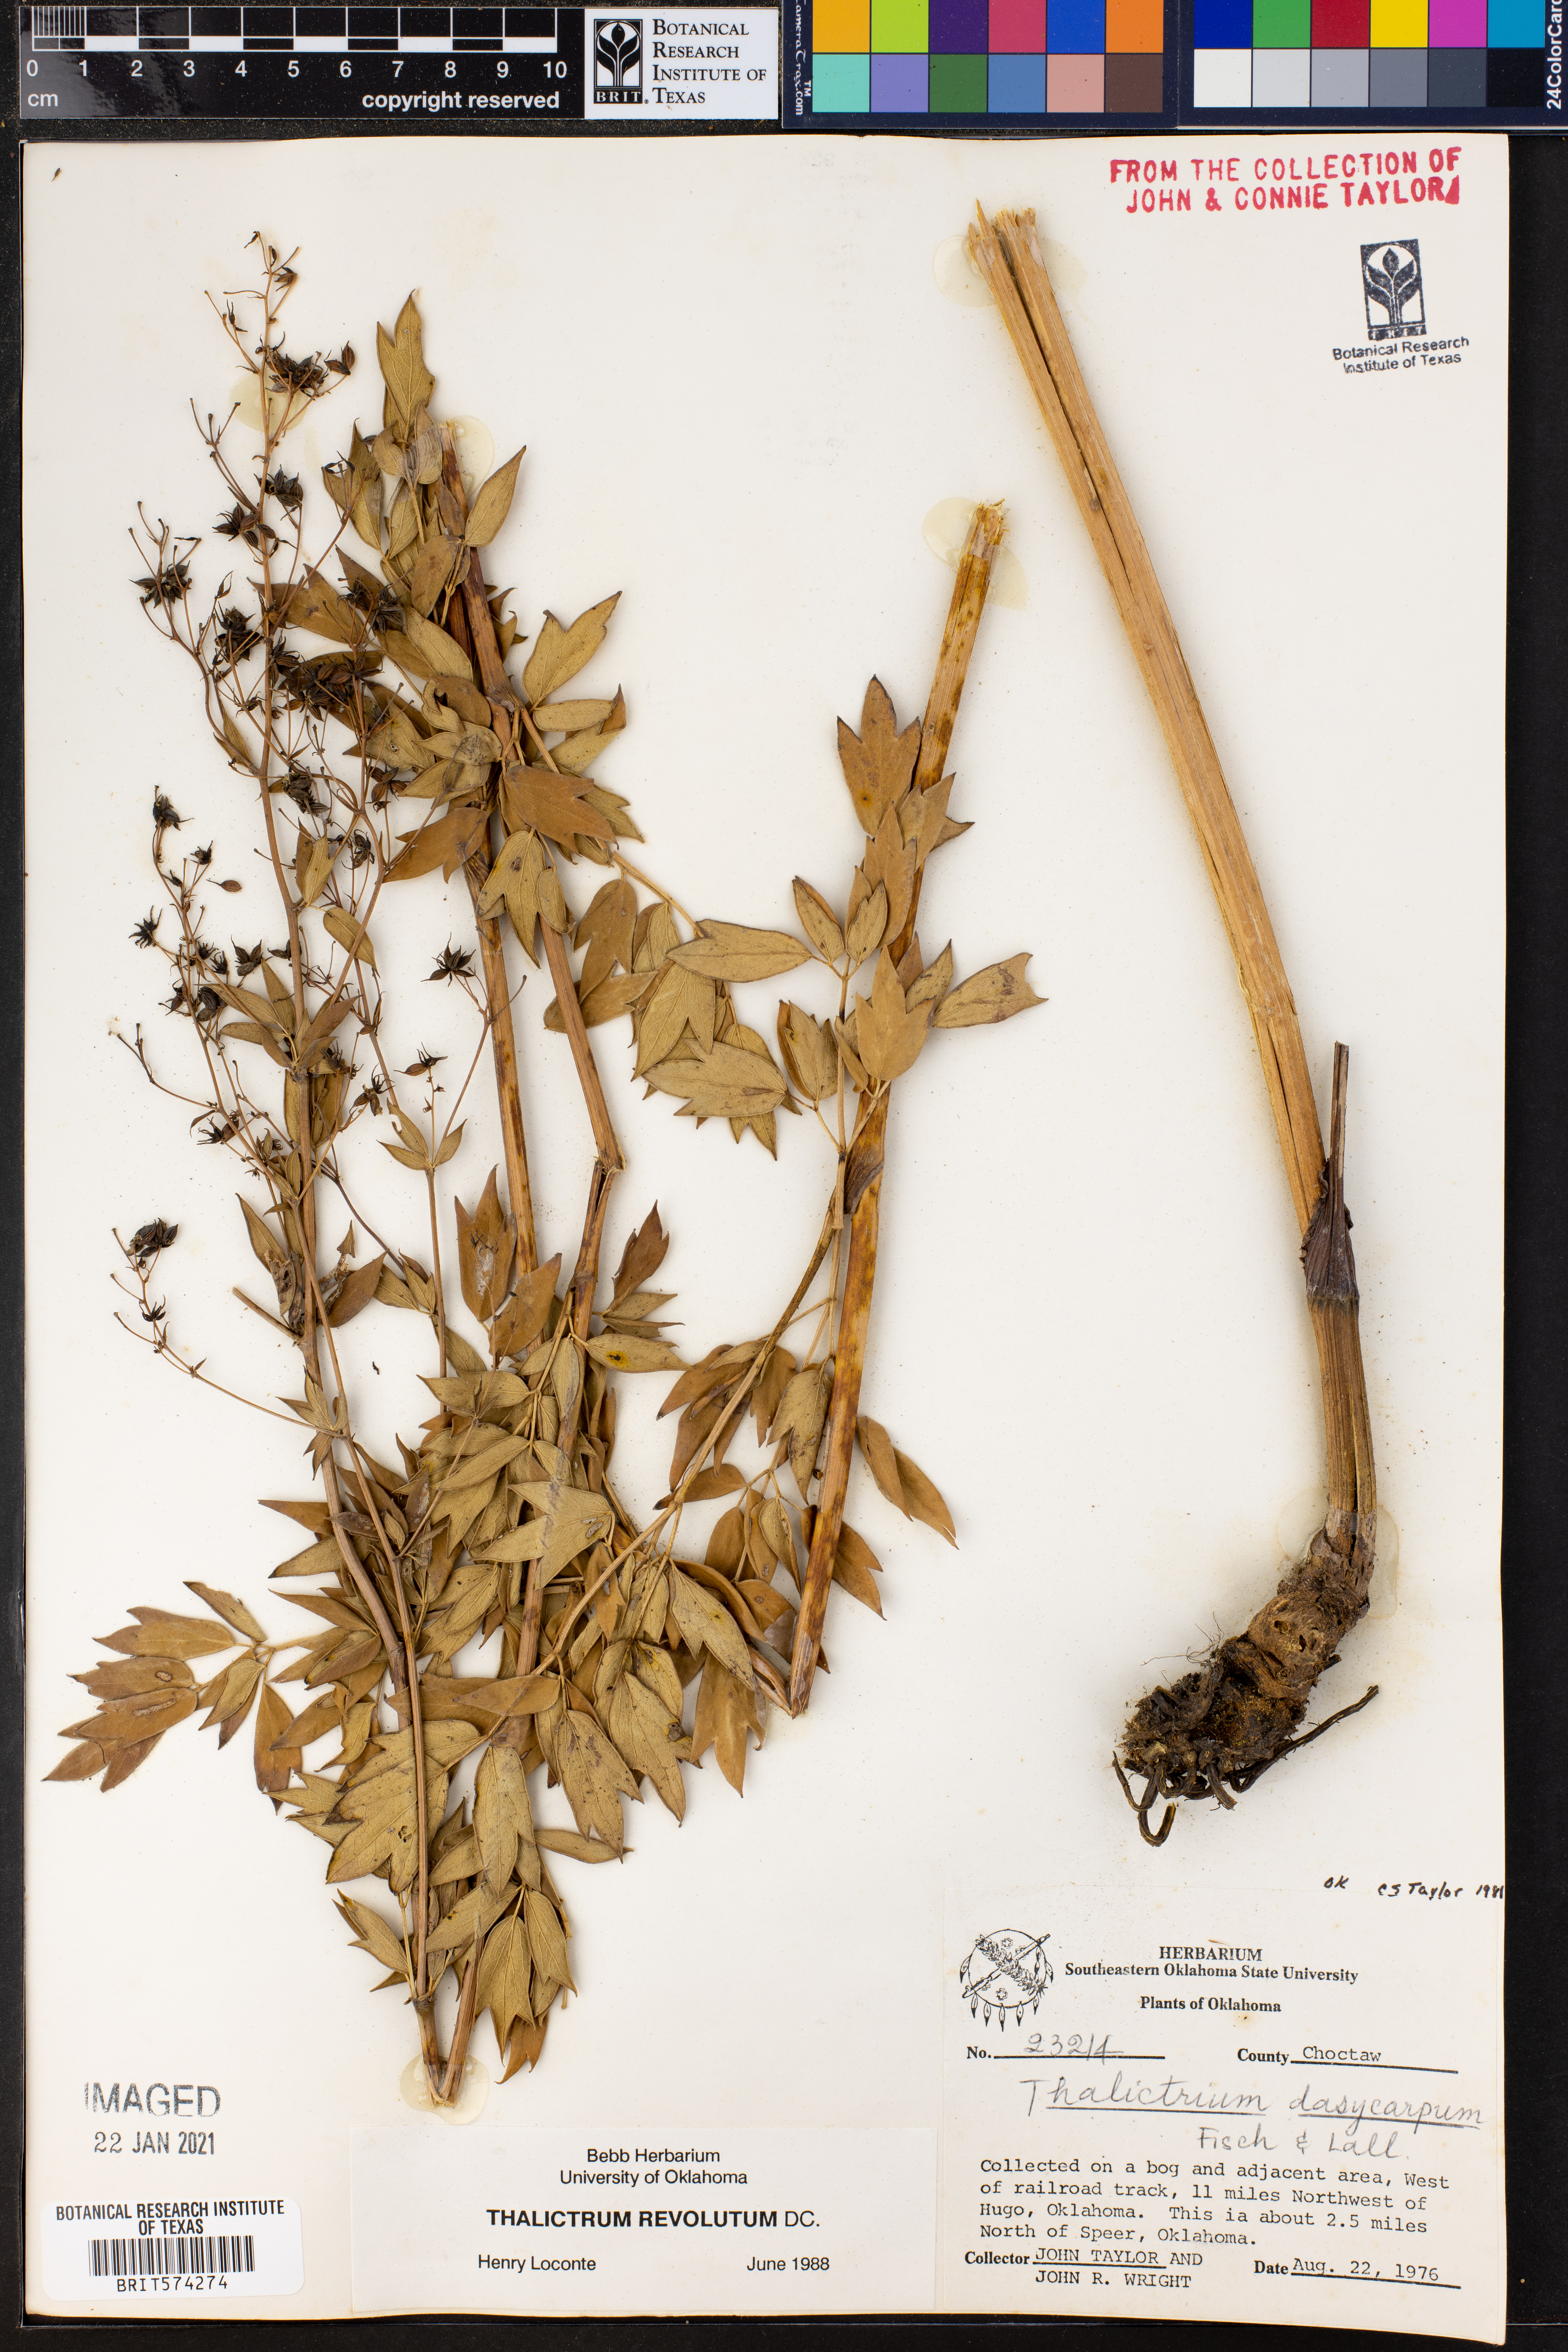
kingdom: Plantae
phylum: Tracheophyta
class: Magnoliopsida
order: Ranunculales
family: Ranunculaceae
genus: Thalictrum
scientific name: Thalictrum revolutum
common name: Waxy meadow-rue
